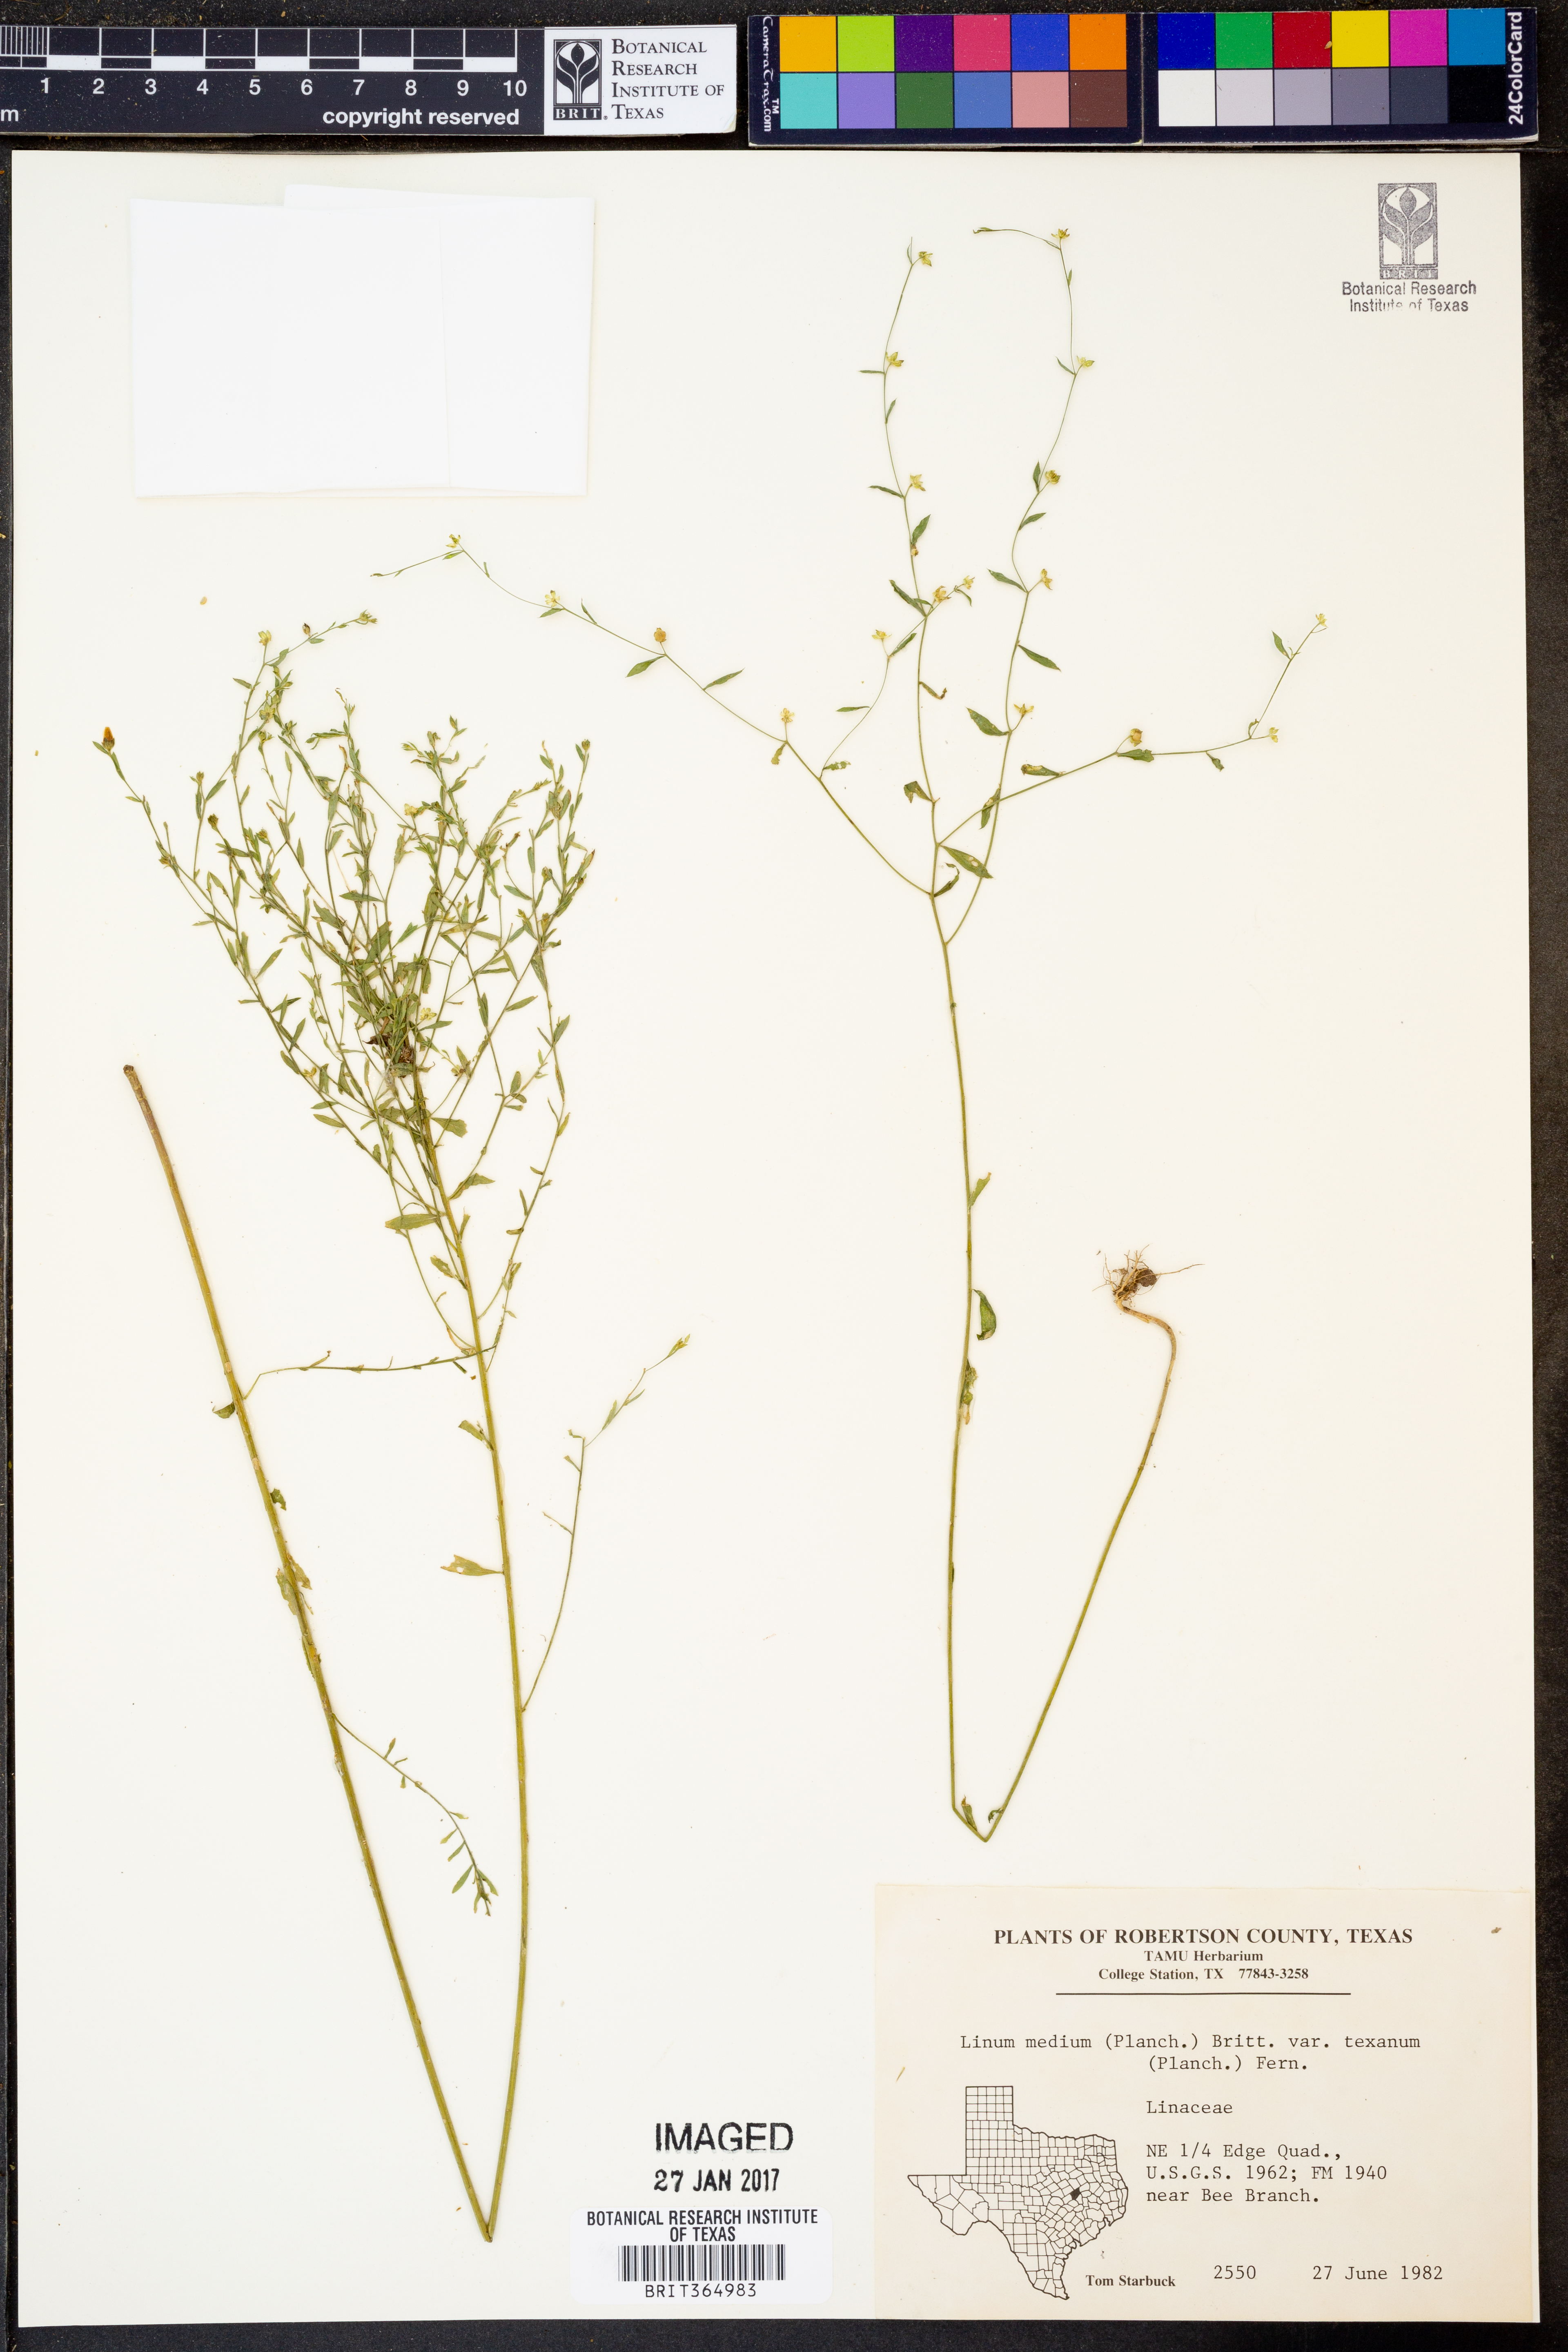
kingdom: Plantae
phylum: Tracheophyta
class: Magnoliopsida
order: Malpighiales
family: Linaceae
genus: Linum
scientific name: Linum medium
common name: Stiff yellow flax
